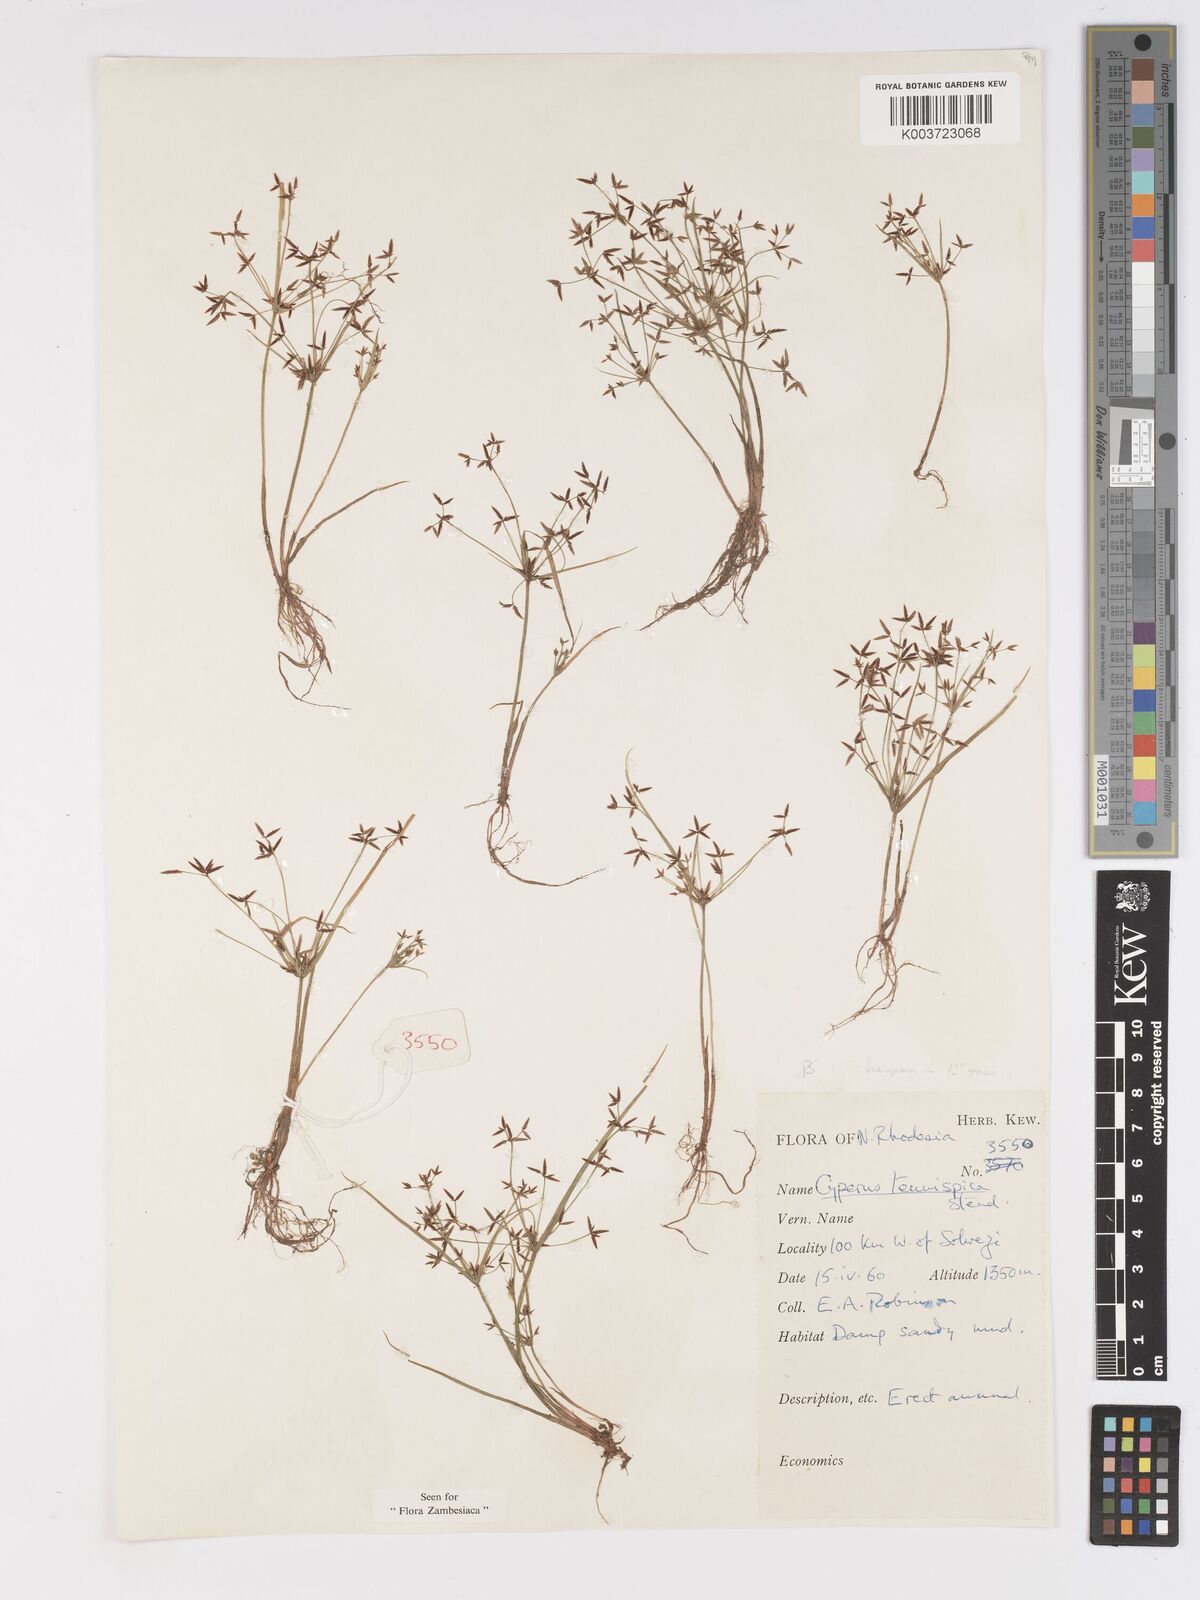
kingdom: Plantae
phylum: Tracheophyta
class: Liliopsida
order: Poales
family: Cyperaceae
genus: Cyperus
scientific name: Cyperus tenuispica
